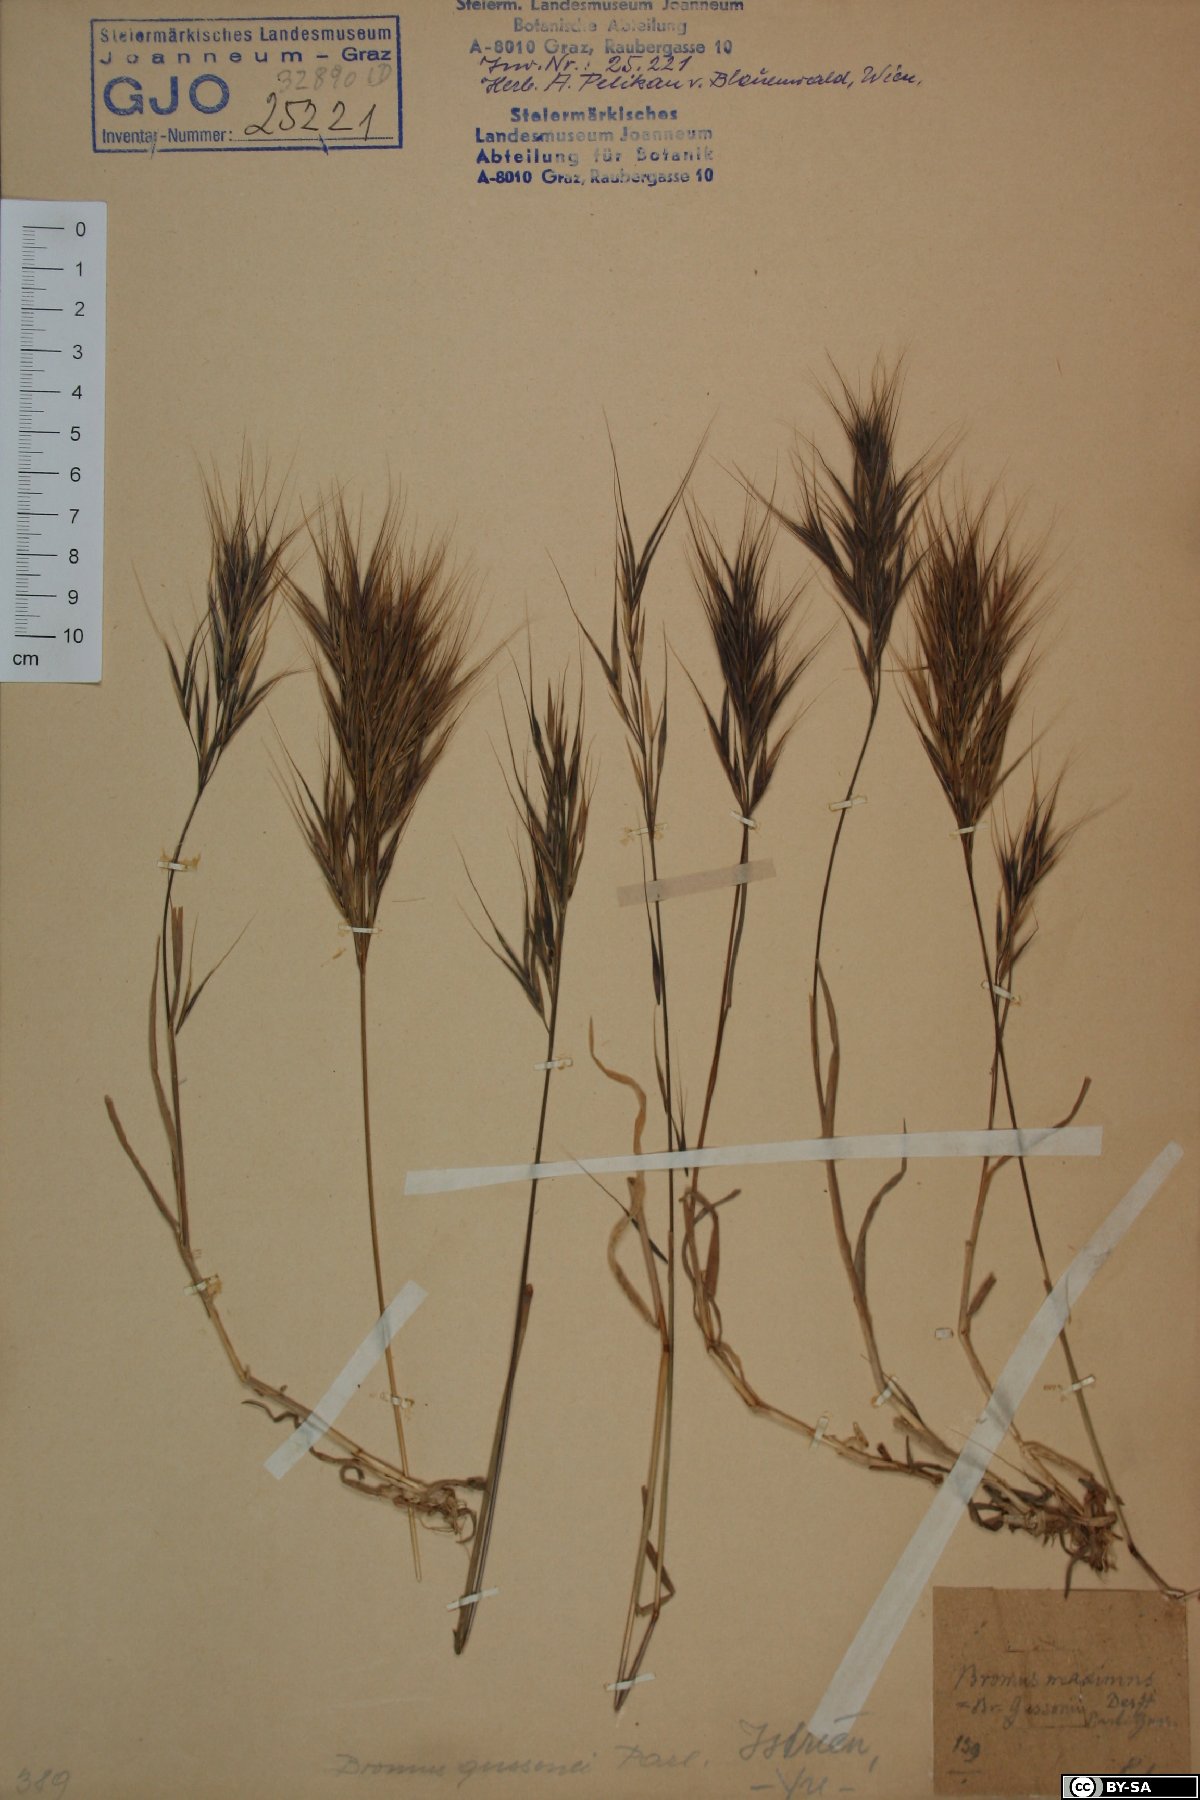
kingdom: Plantae
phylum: Tracheophyta
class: Liliopsida
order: Poales
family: Poaceae
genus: Bromus
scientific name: Bromus diandrus
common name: Ripgut brome
